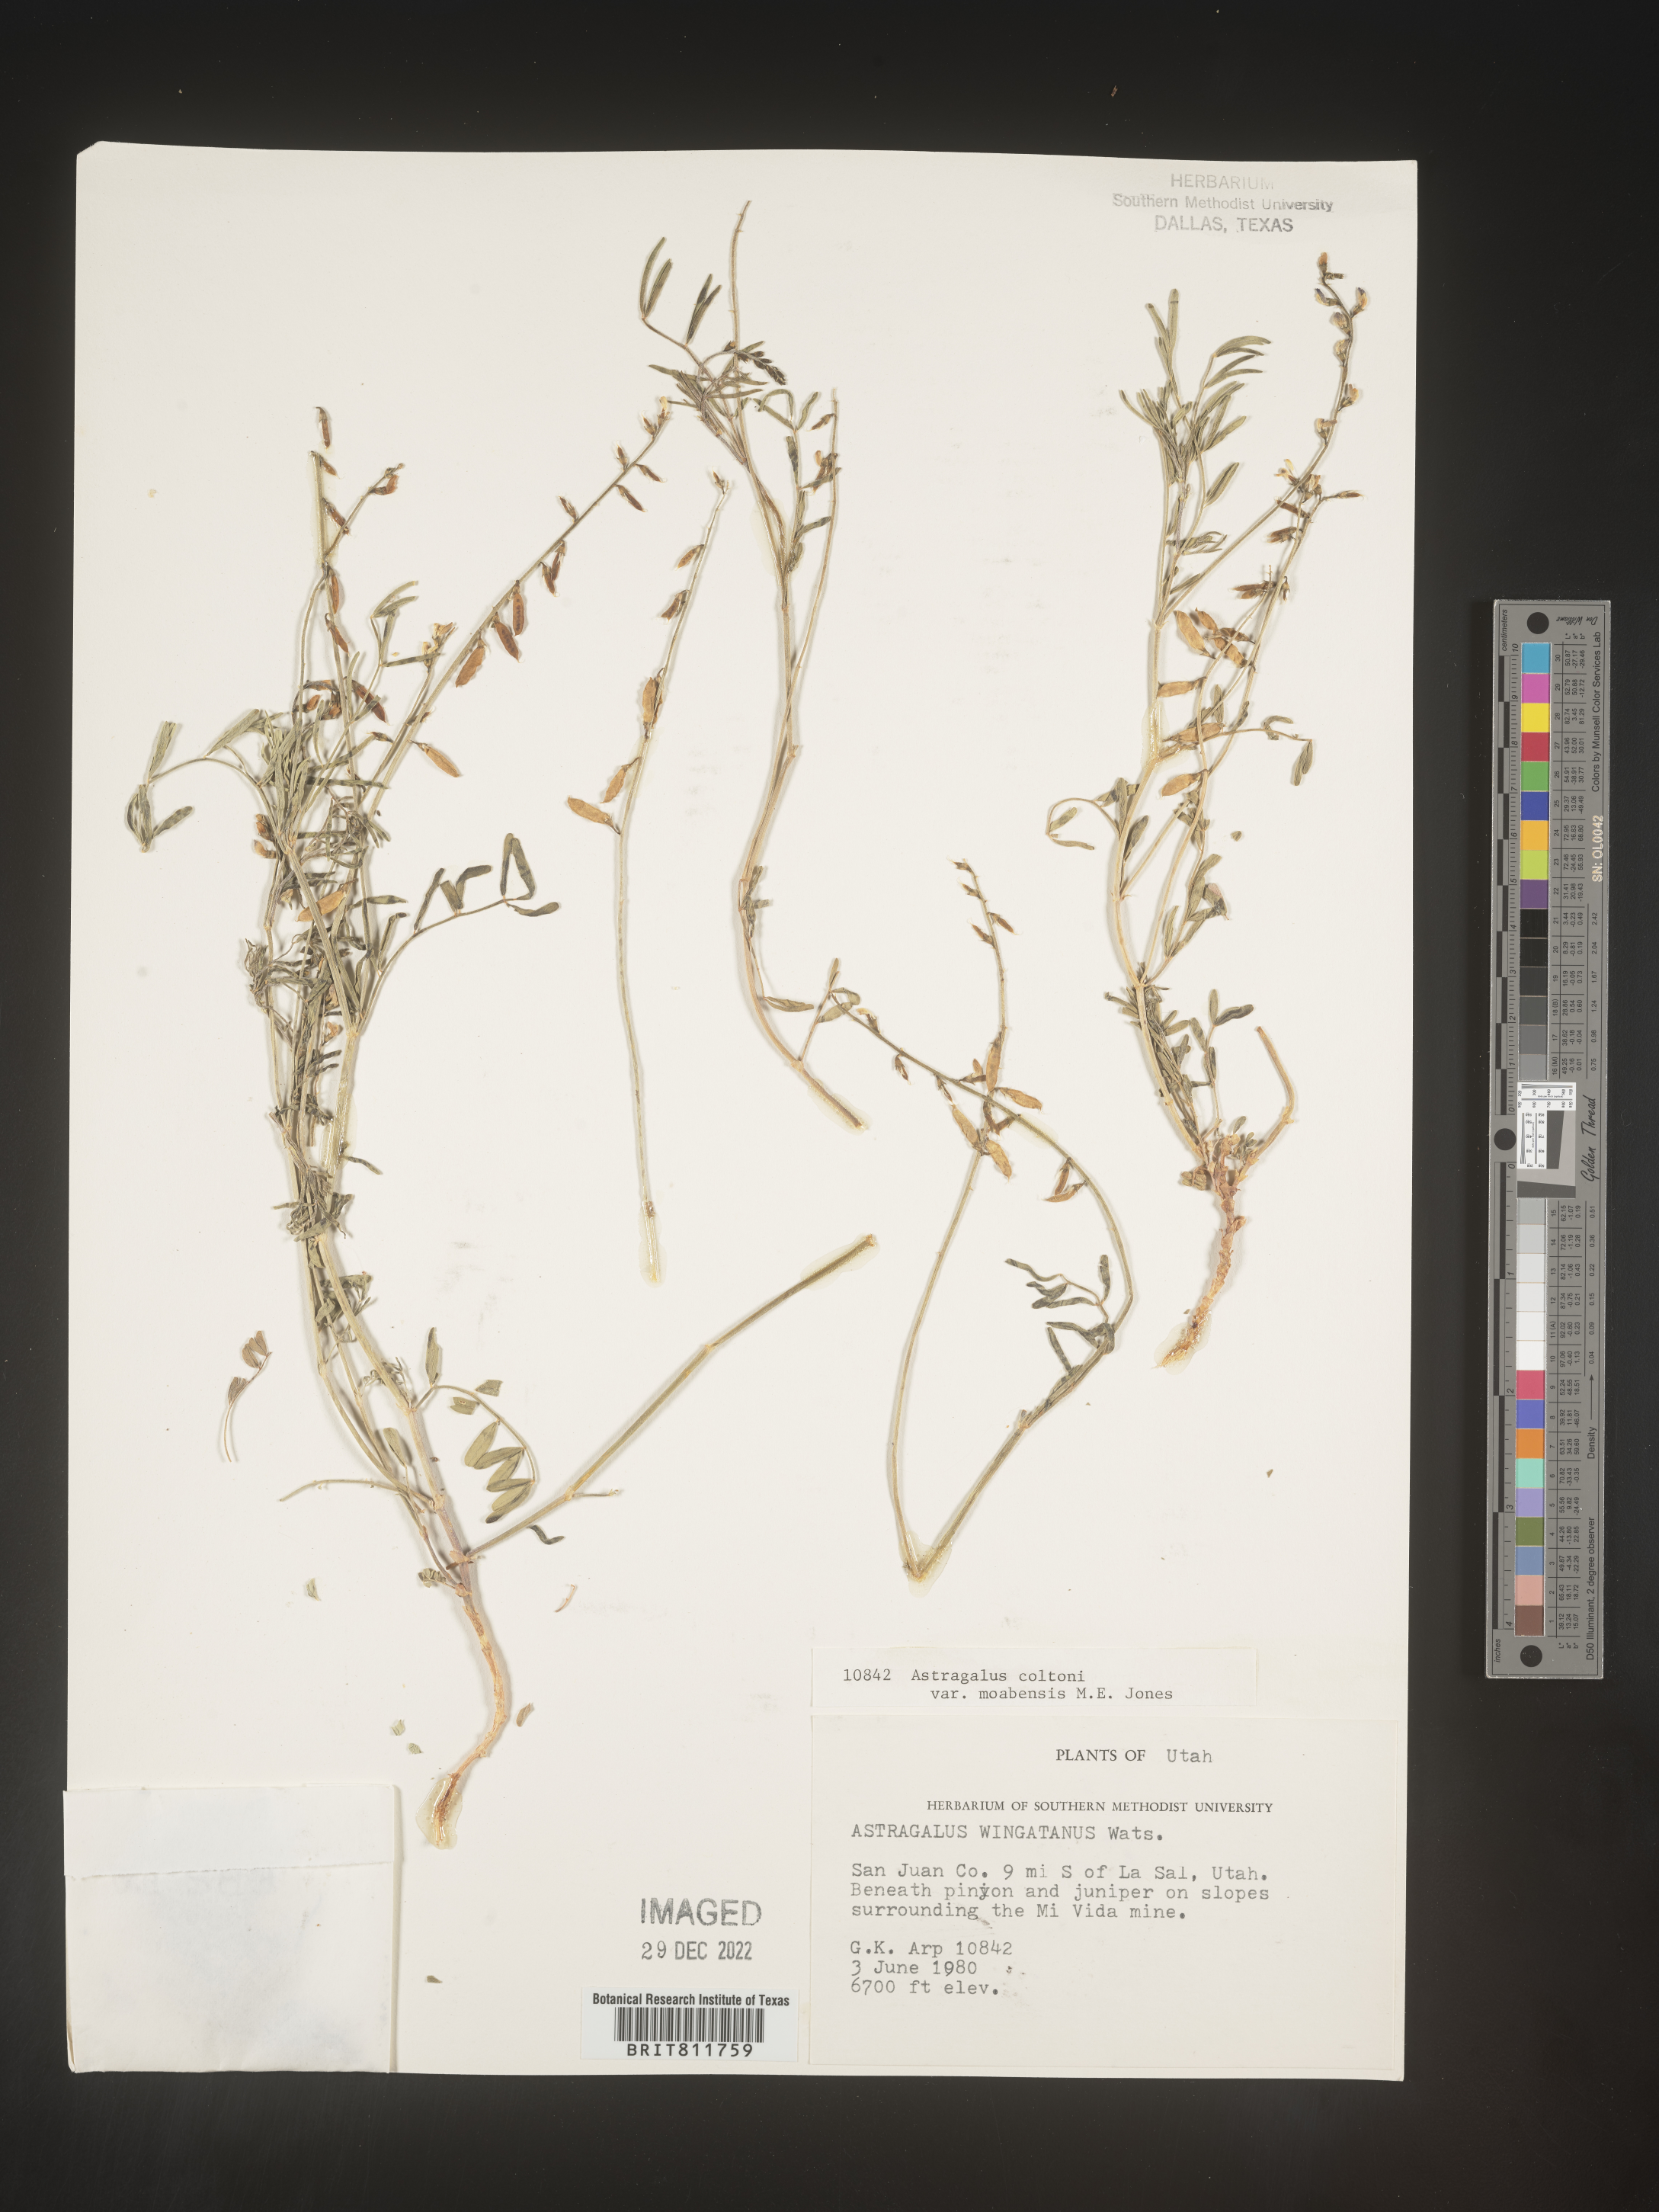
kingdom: Plantae
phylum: Tracheophyta
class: Magnoliopsida
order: Fabales
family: Fabaceae
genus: Astragalus
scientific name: Astragalus
